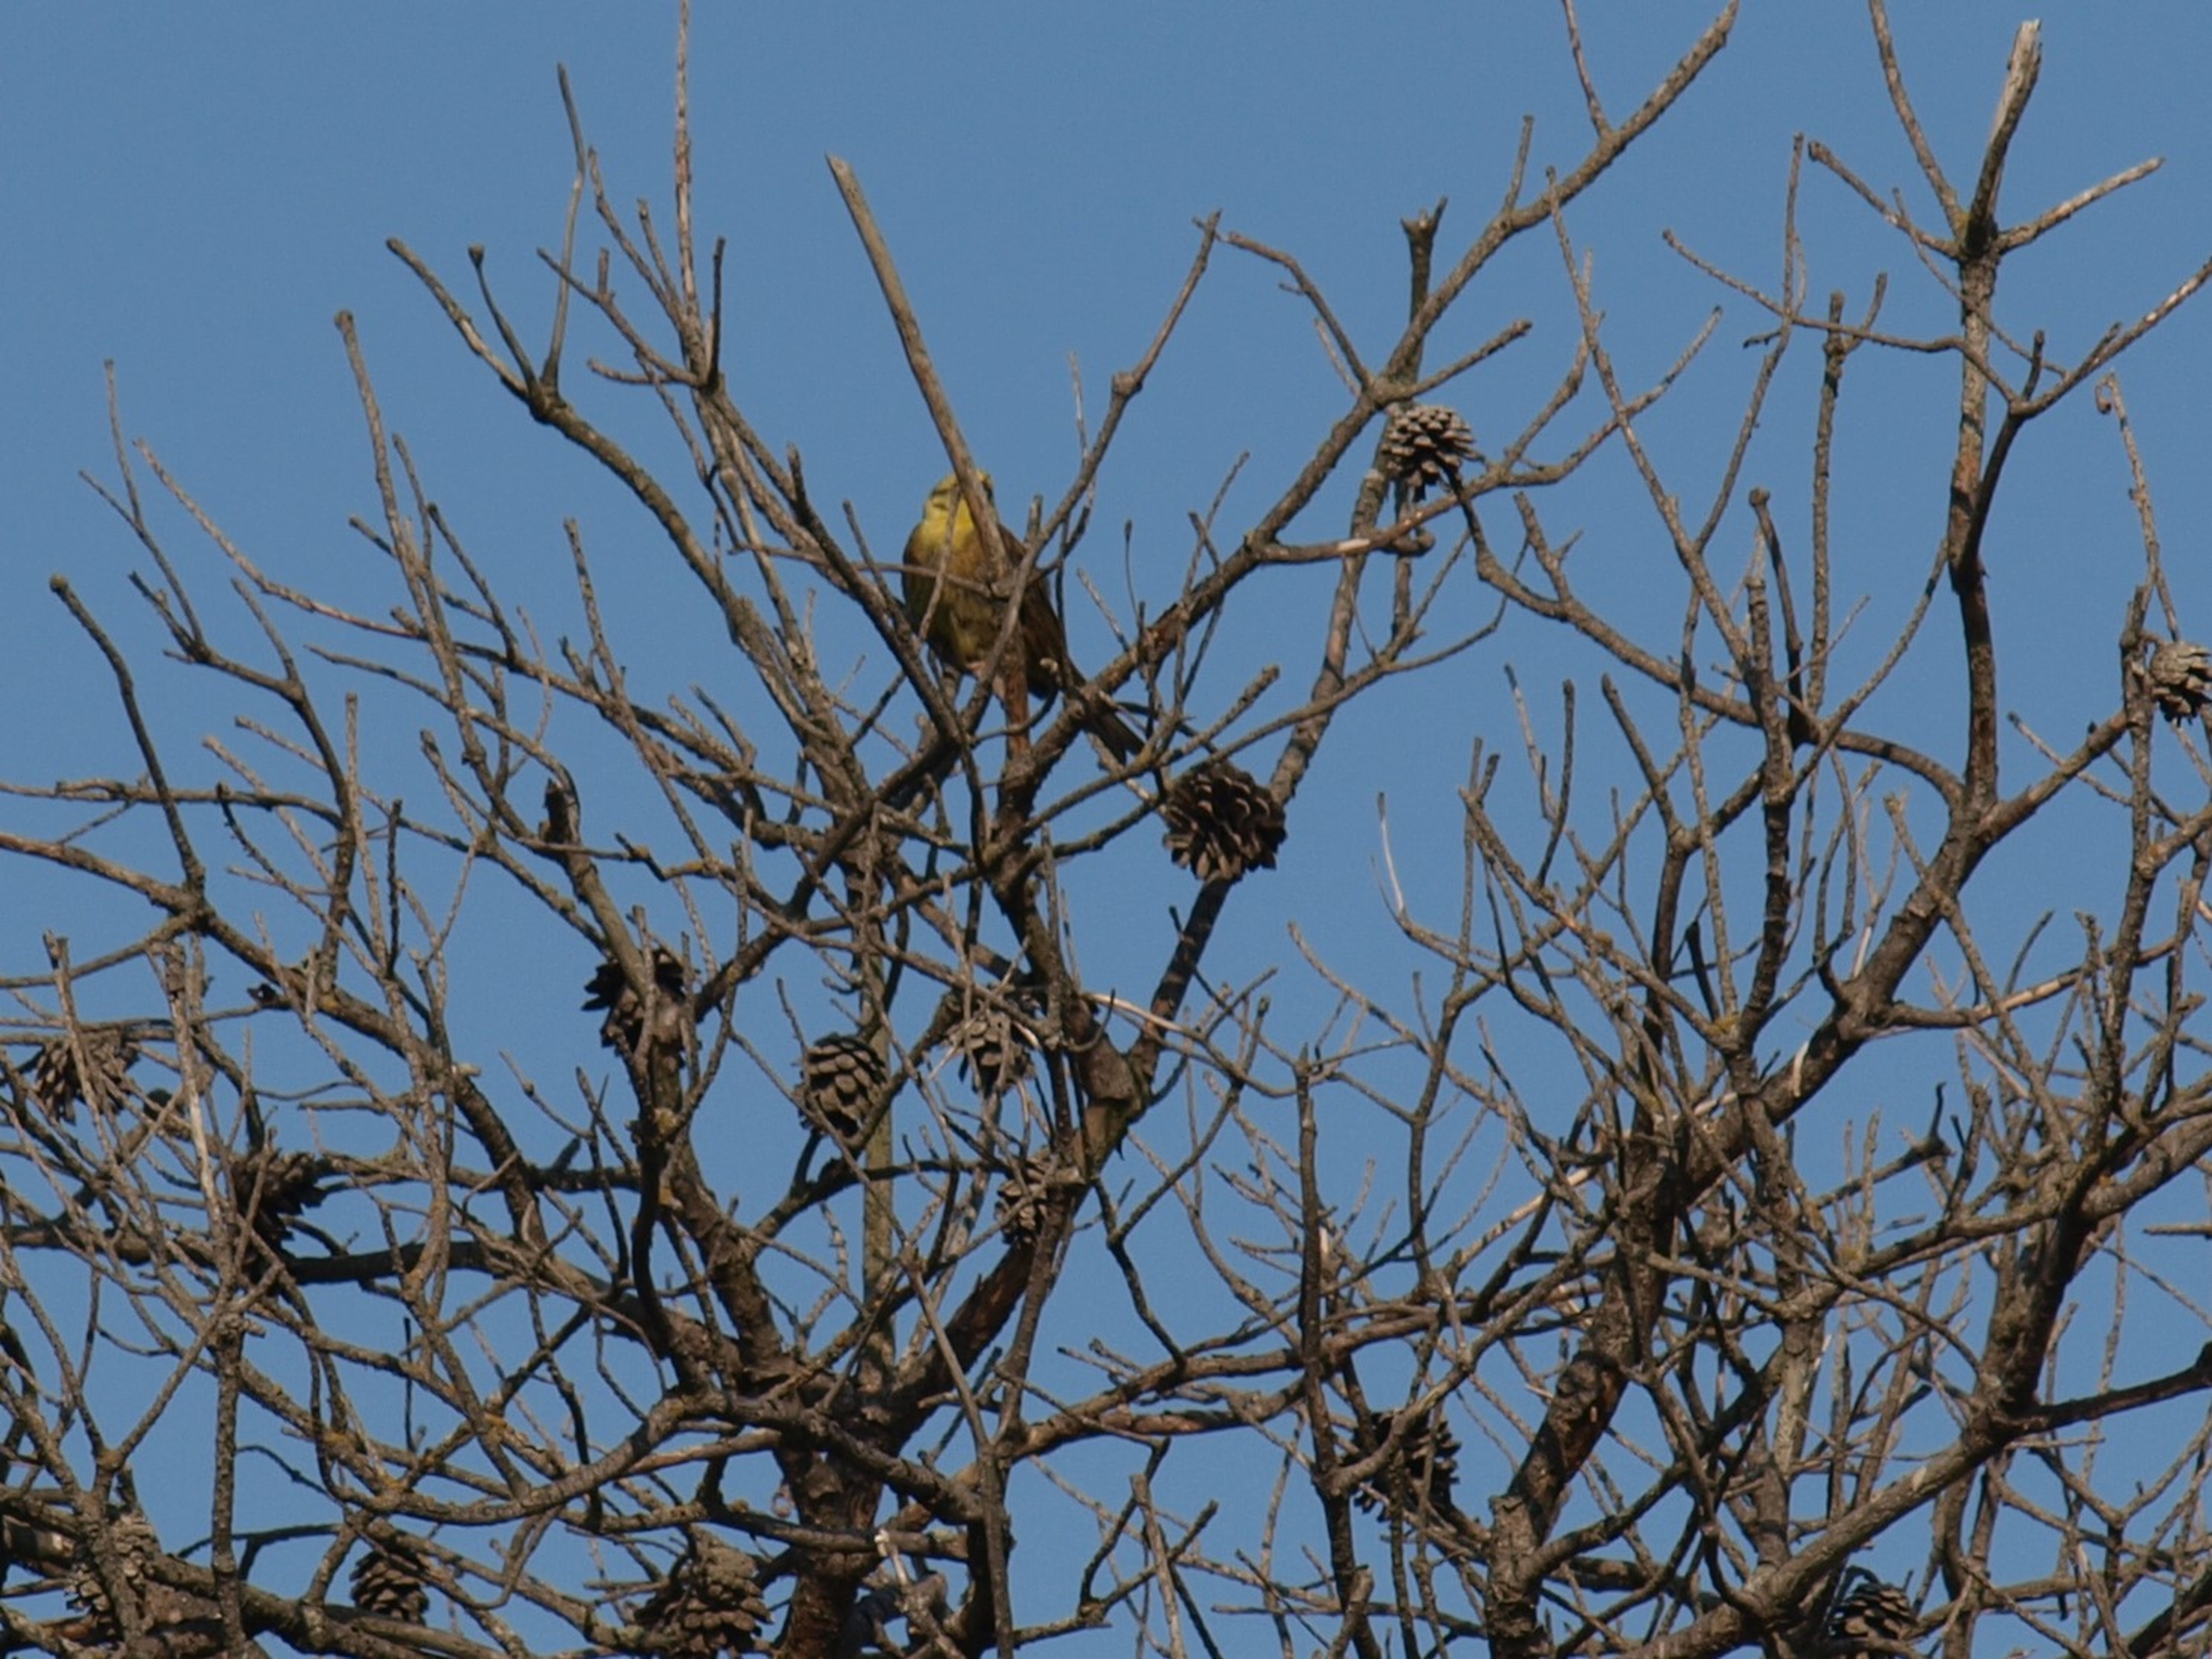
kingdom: Animalia
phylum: Chordata
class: Aves
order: Passeriformes
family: Emberizidae
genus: Emberiza
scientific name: Emberiza citrinella
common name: Gulspurv
